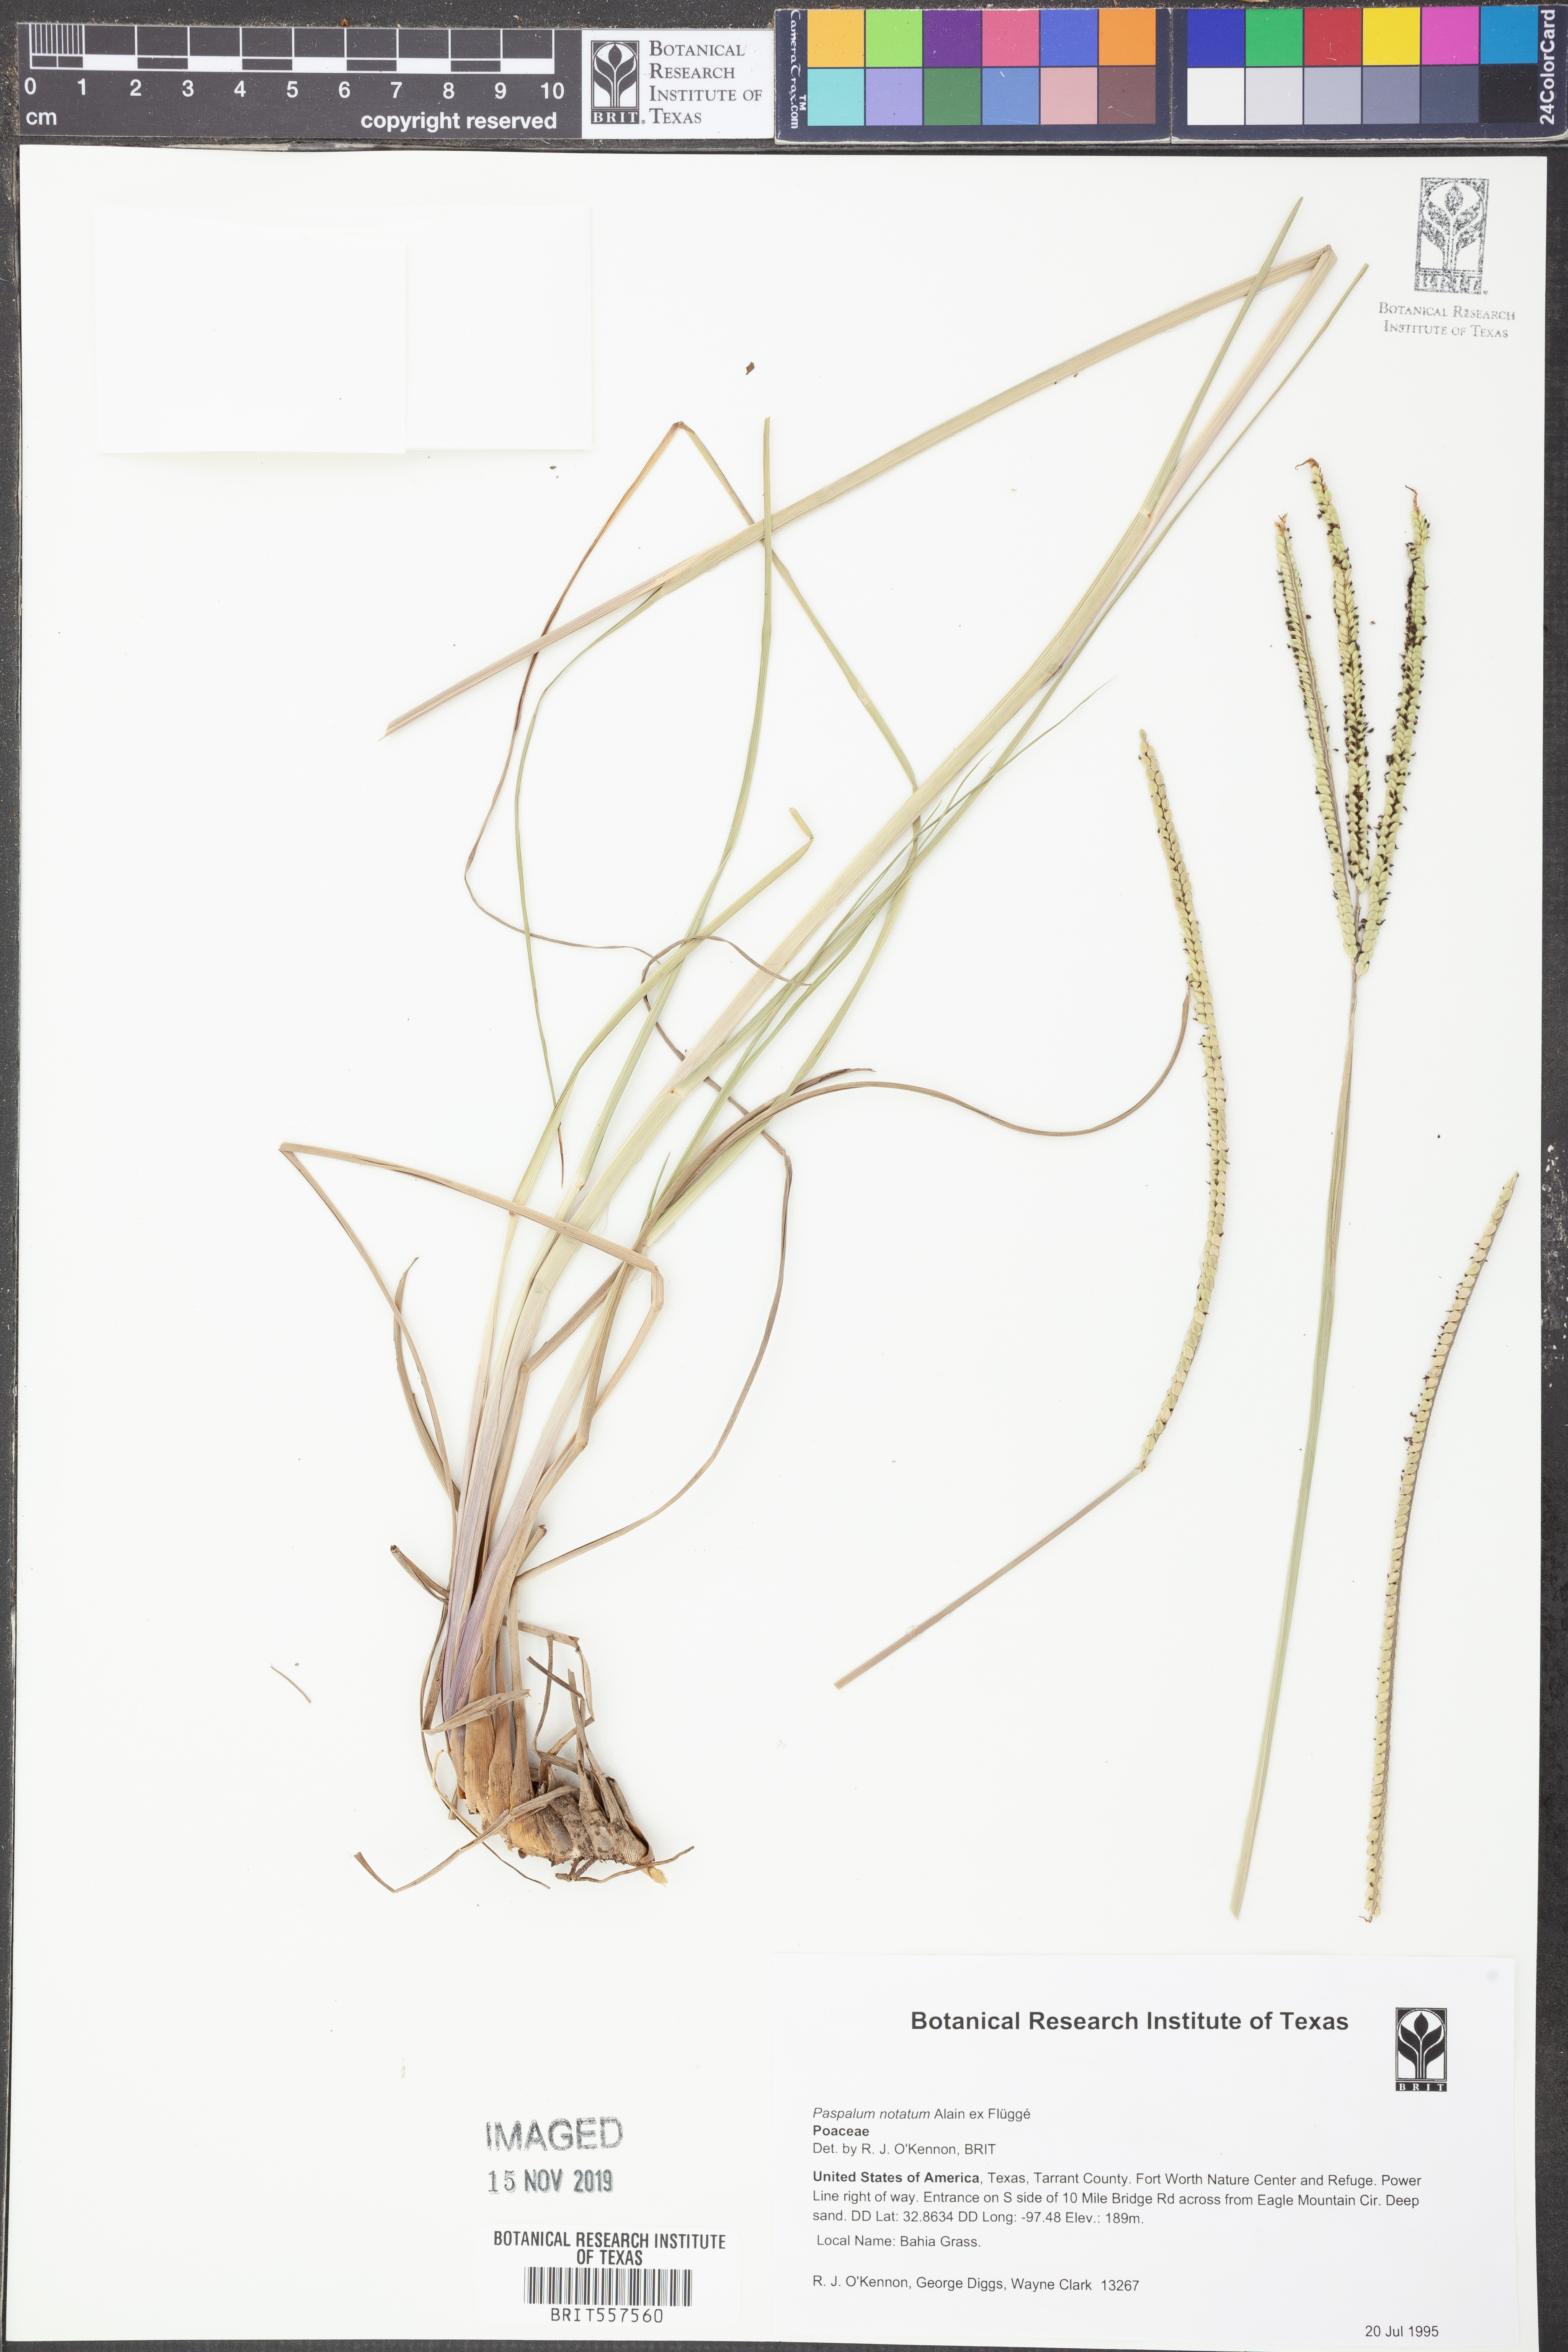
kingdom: Plantae
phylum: Tracheophyta
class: Liliopsida
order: Poales
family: Poaceae
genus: Paspalum
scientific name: Paspalum notatum
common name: Bahiagrass
